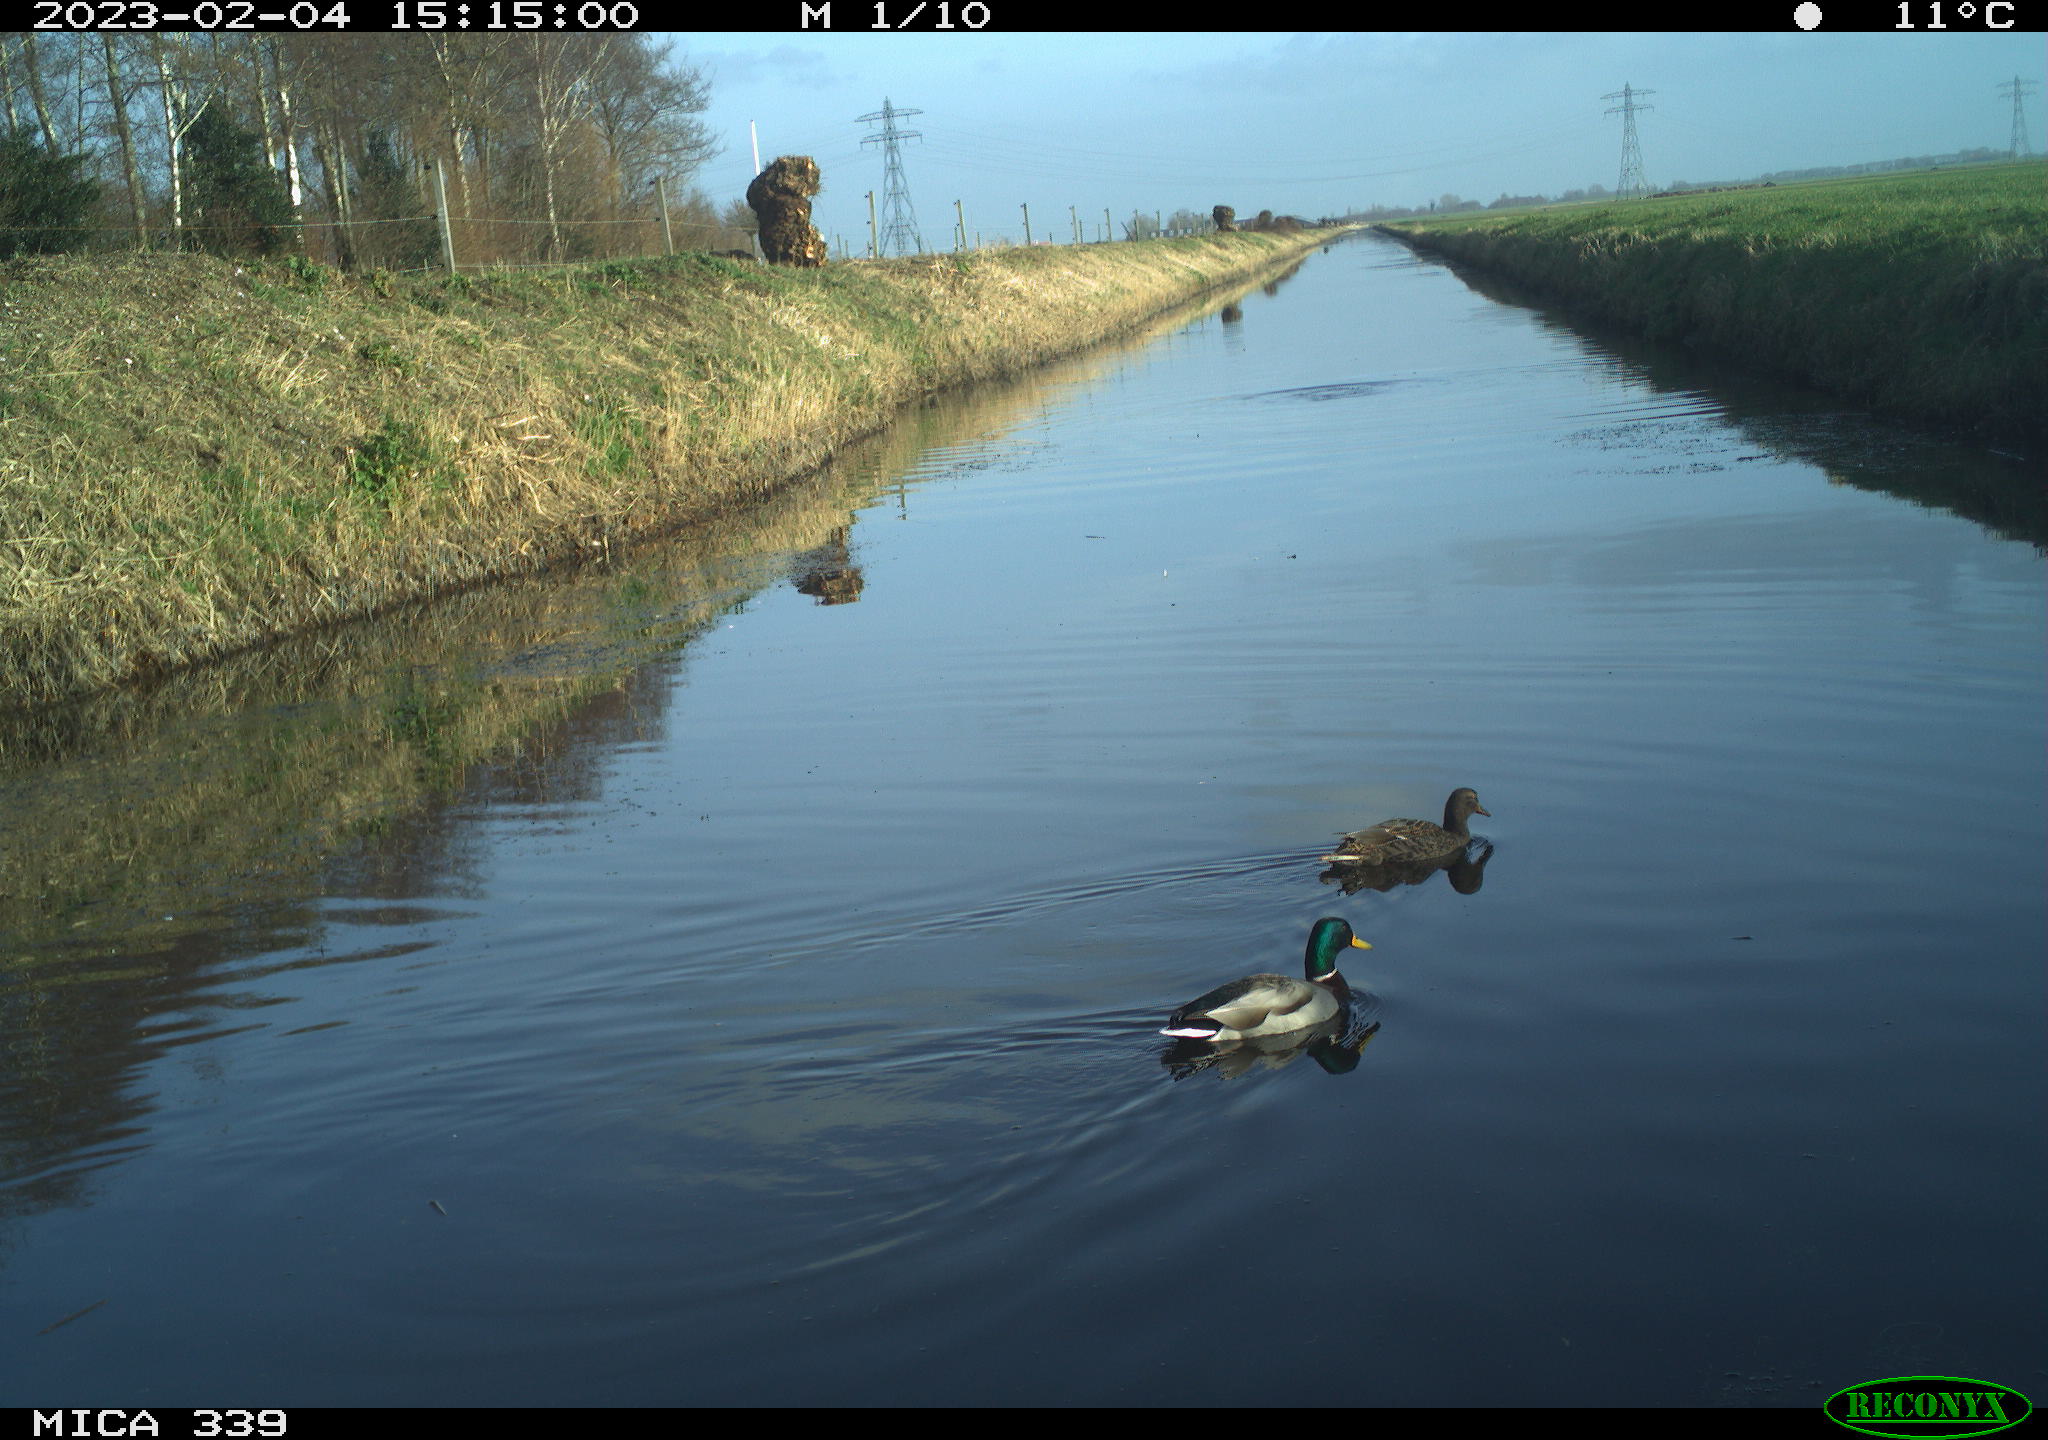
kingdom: Animalia
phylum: Chordata
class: Aves
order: Anseriformes
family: Anatidae
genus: Anas
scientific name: Anas
